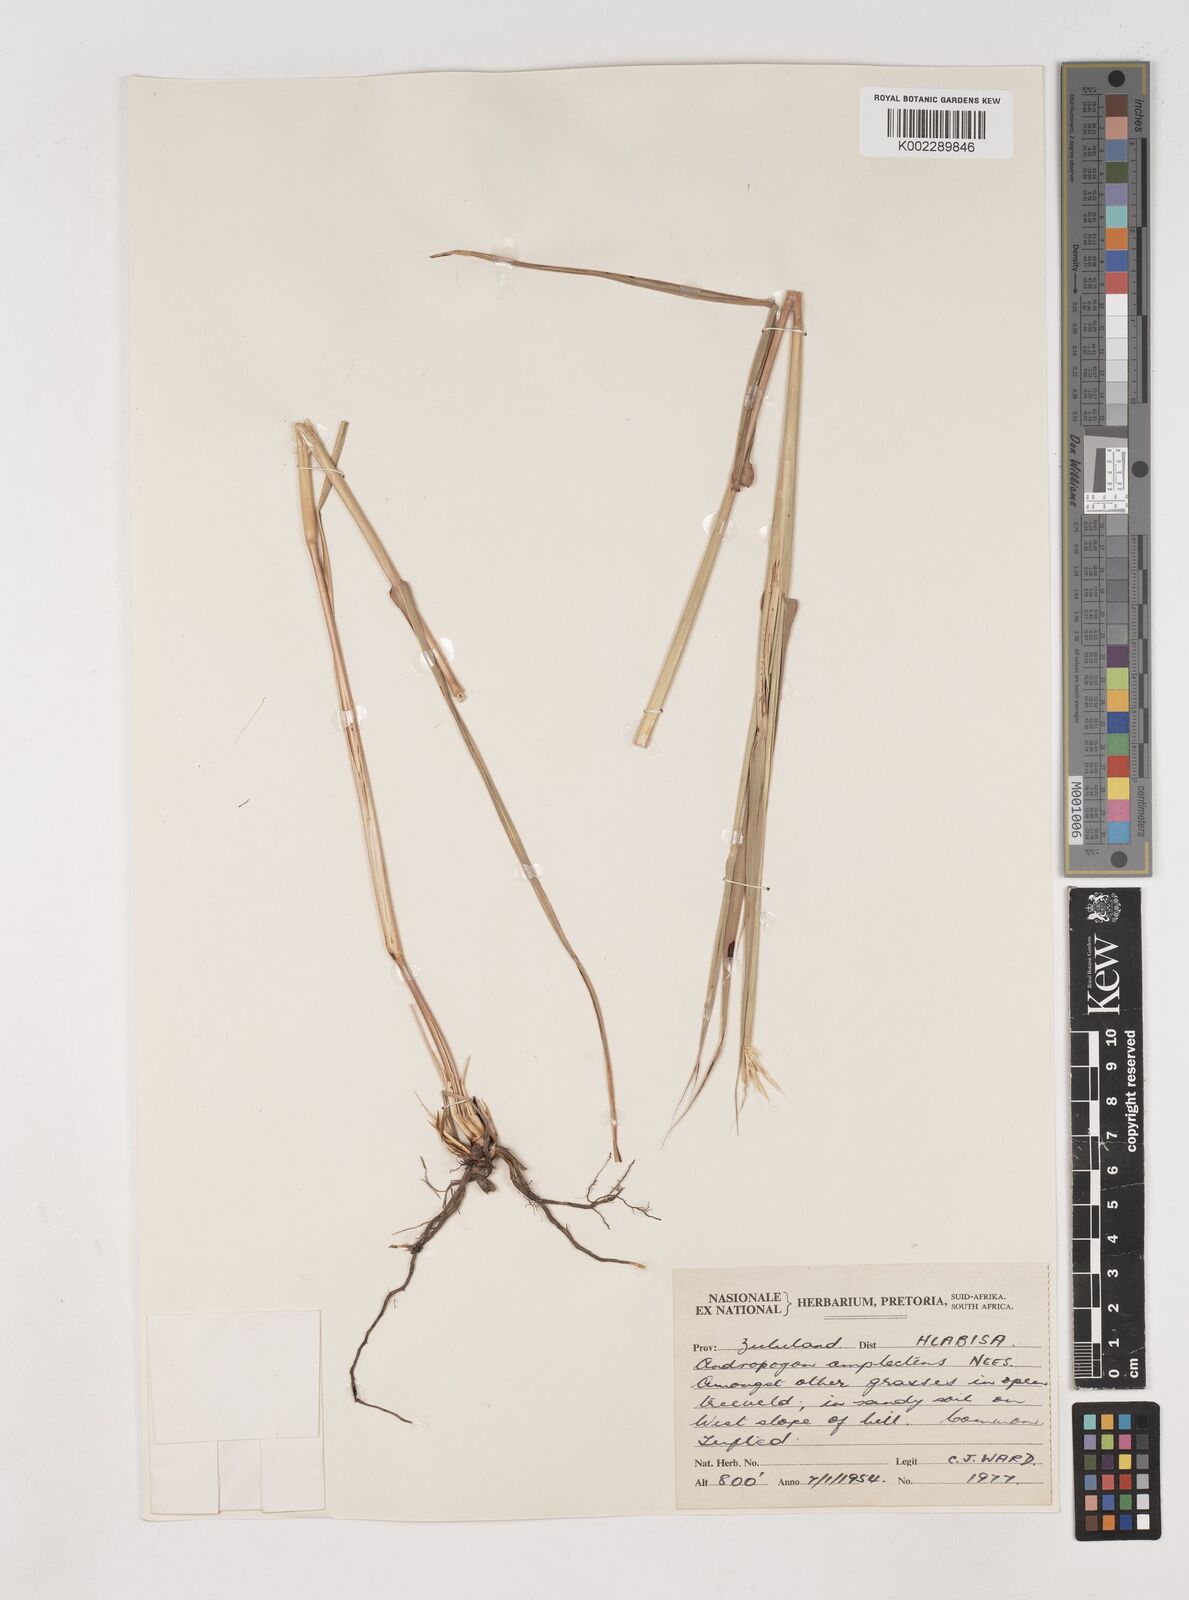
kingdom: Plantae
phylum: Tracheophyta
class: Liliopsida
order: Poales
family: Poaceae
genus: Diheteropogon
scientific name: Diheteropogon amplectens
